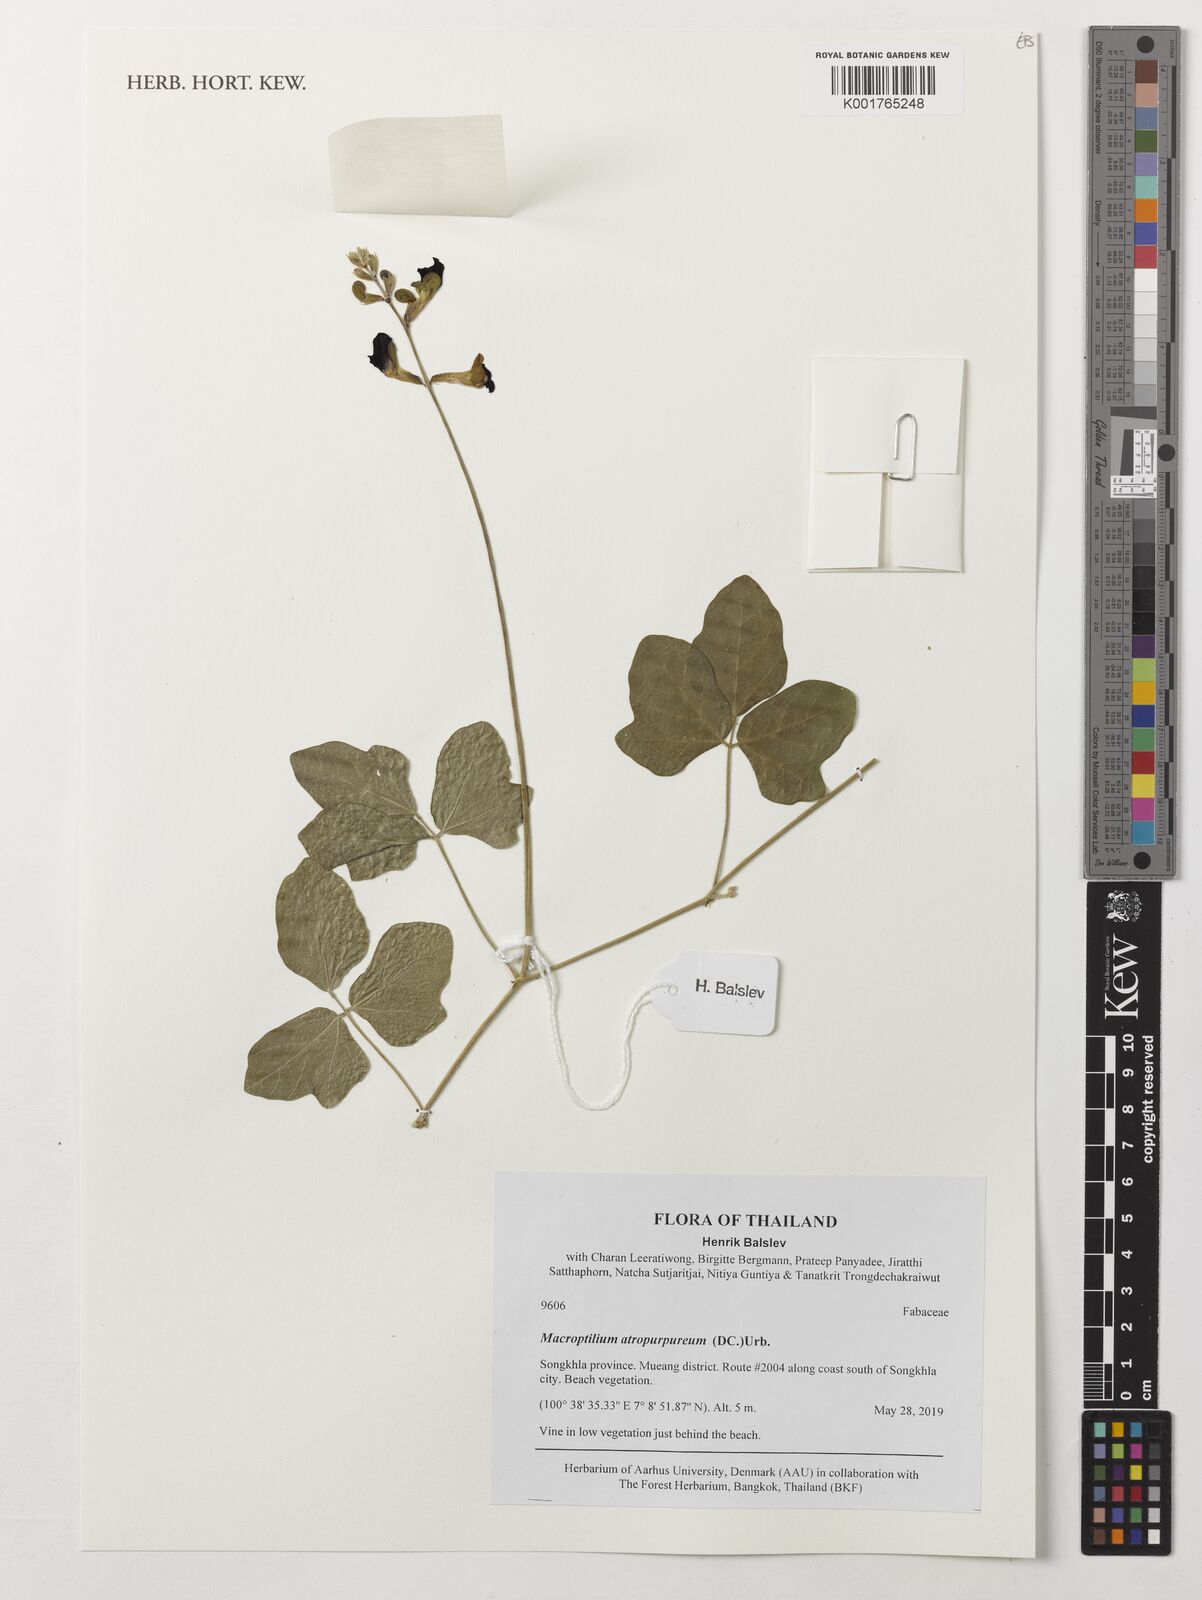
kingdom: Plantae
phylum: Tracheophyta
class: Magnoliopsida
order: Fabales
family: Fabaceae
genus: Macroptilium
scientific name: Macroptilium atropurpureum
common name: Purple bushbean
